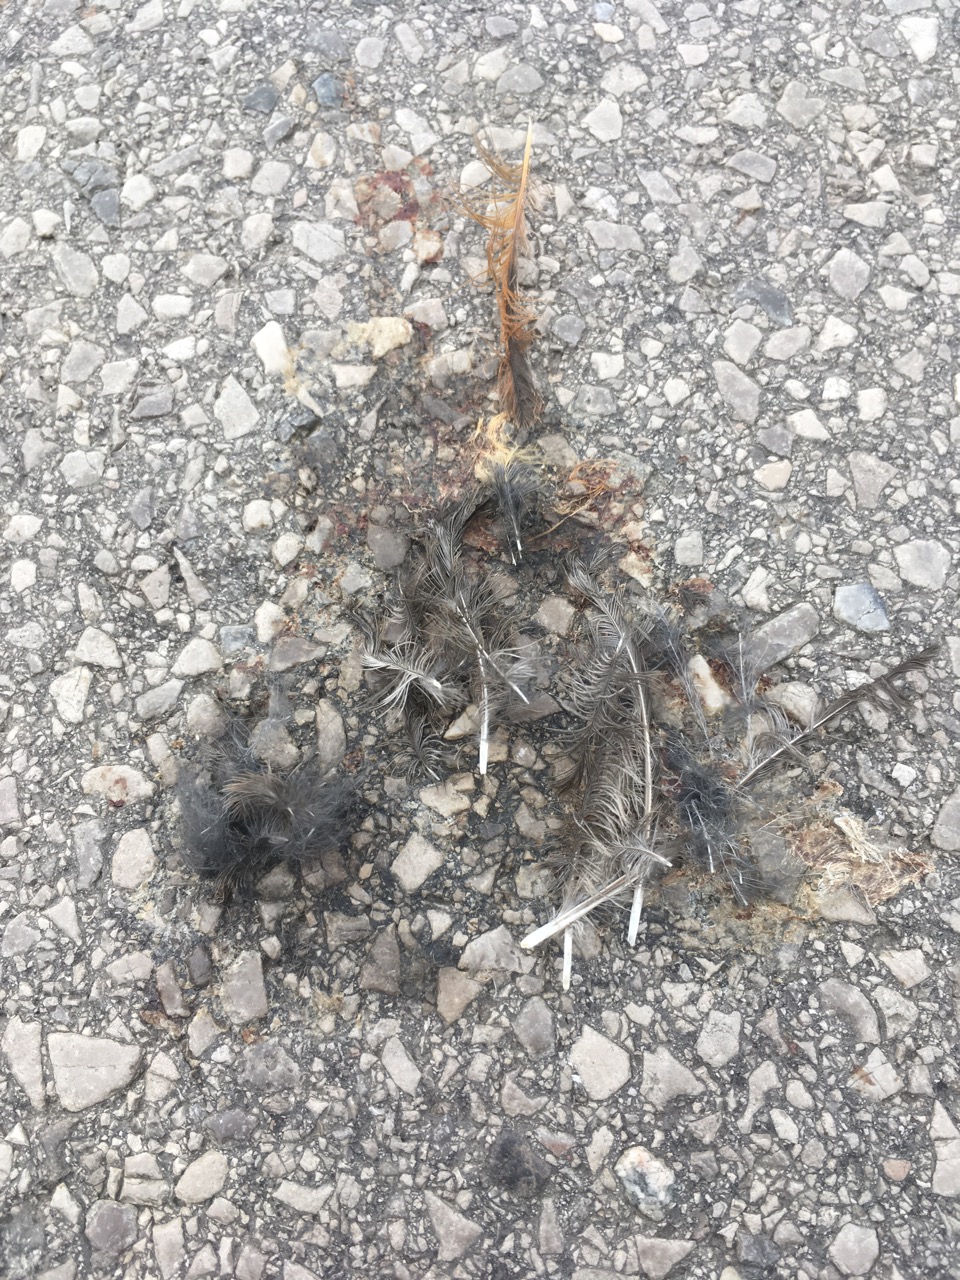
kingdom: Animalia
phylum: Chordata
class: Aves
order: Passeriformes
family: Muscicapidae
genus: Phoenicurus
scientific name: Phoenicurus
